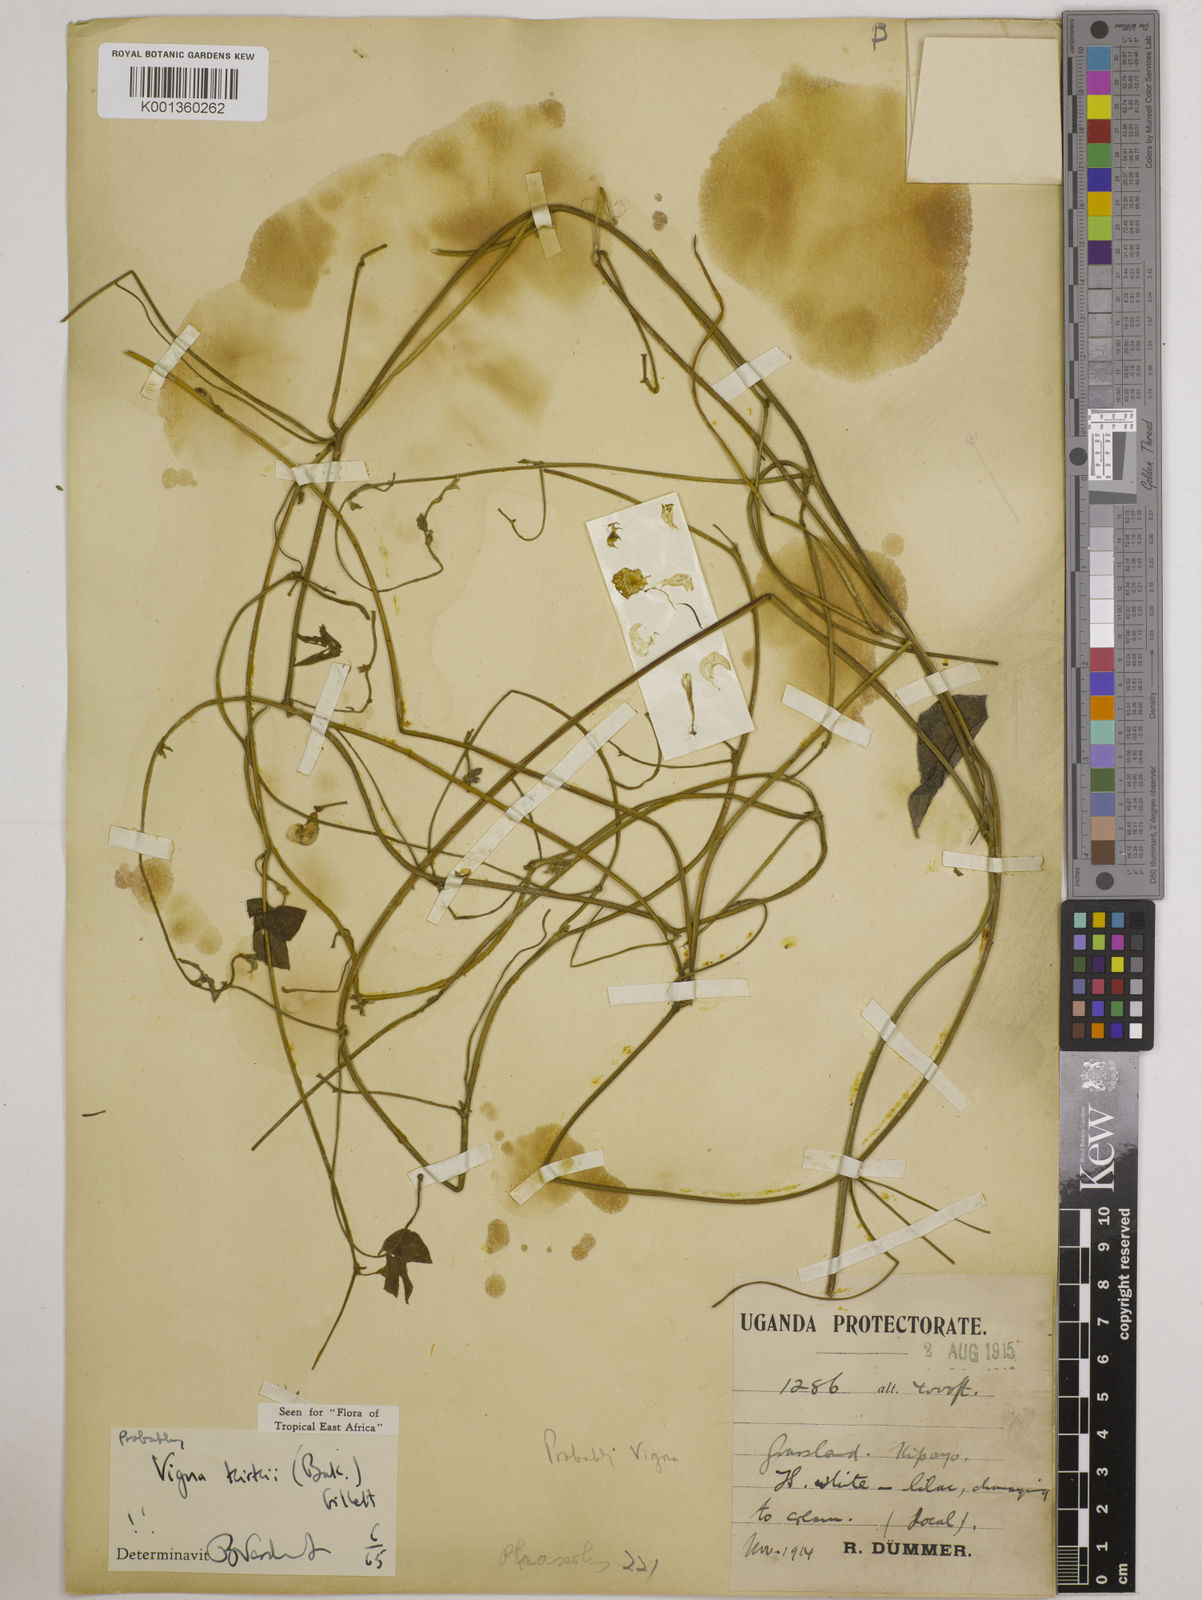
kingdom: Plantae
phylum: Tracheophyta
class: Magnoliopsida
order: Fabales
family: Fabaceae
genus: Vigna
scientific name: Vigna kirkii
